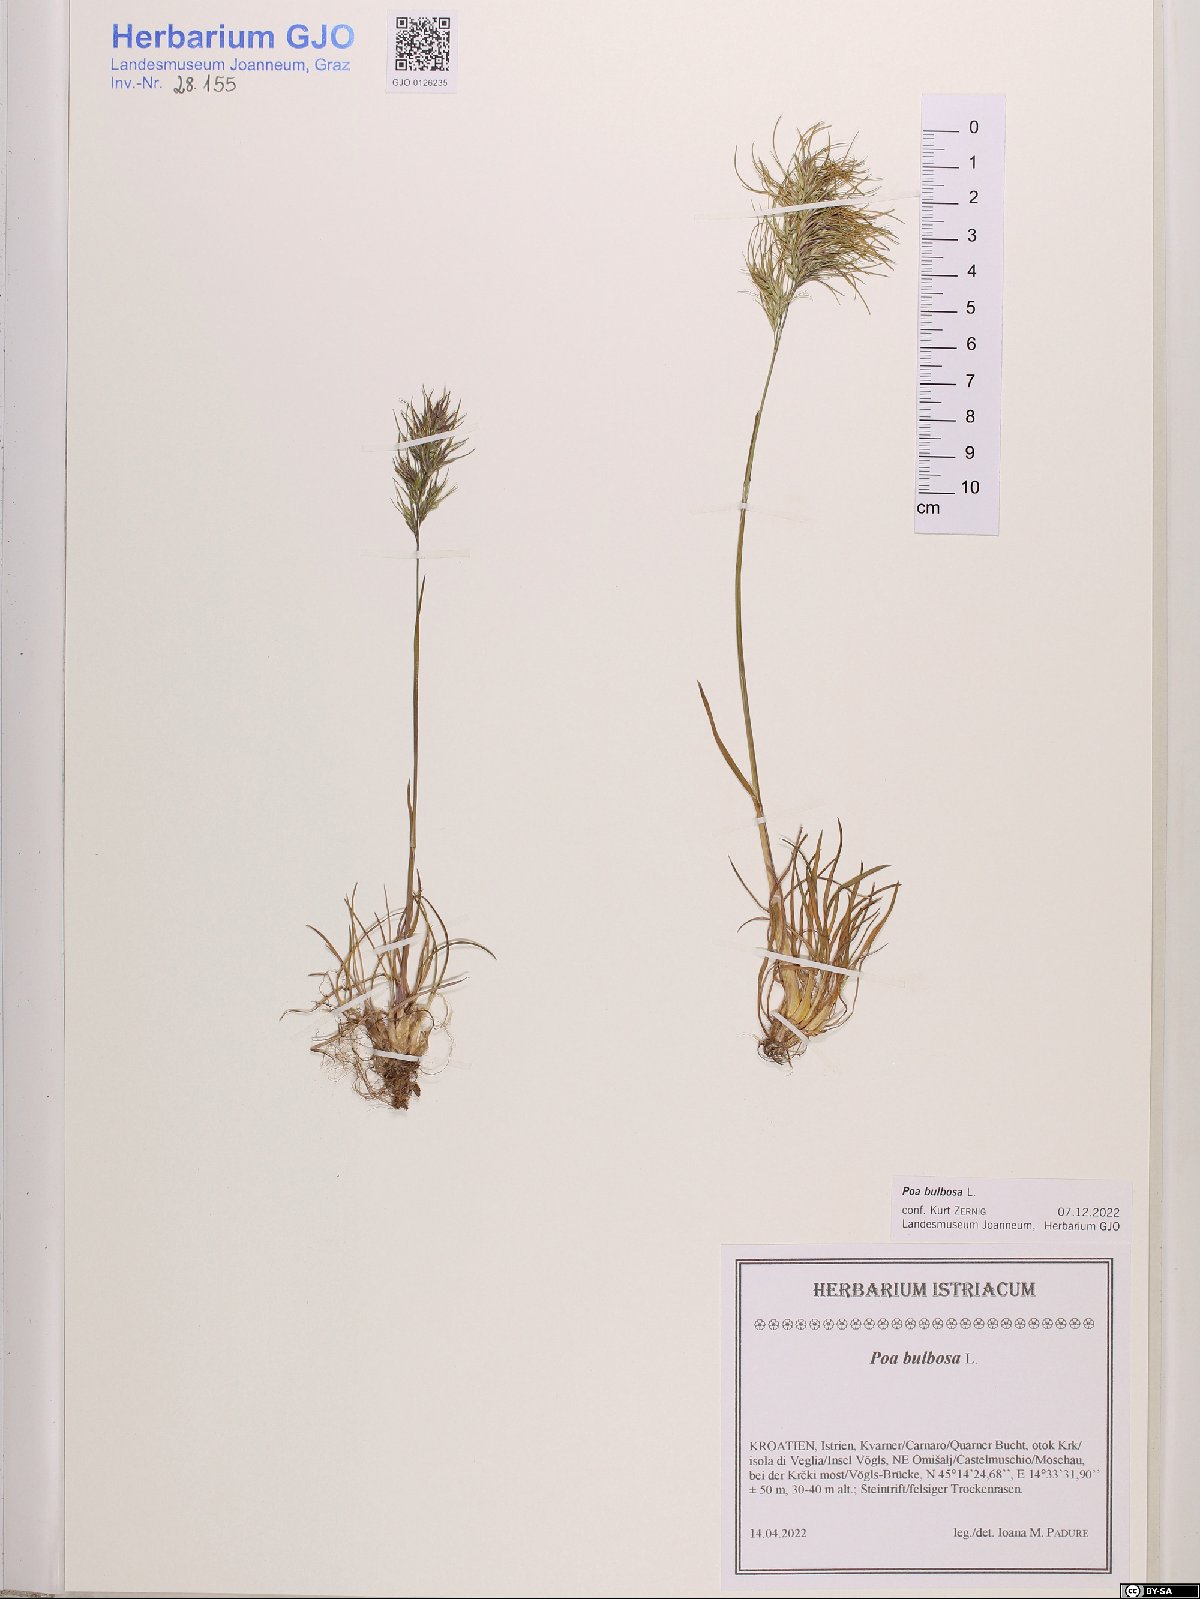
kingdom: Plantae
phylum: Tracheophyta
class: Liliopsida
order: Poales
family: Poaceae
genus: Poa
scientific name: Poa bulbosa
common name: Bulbous bluegrass
